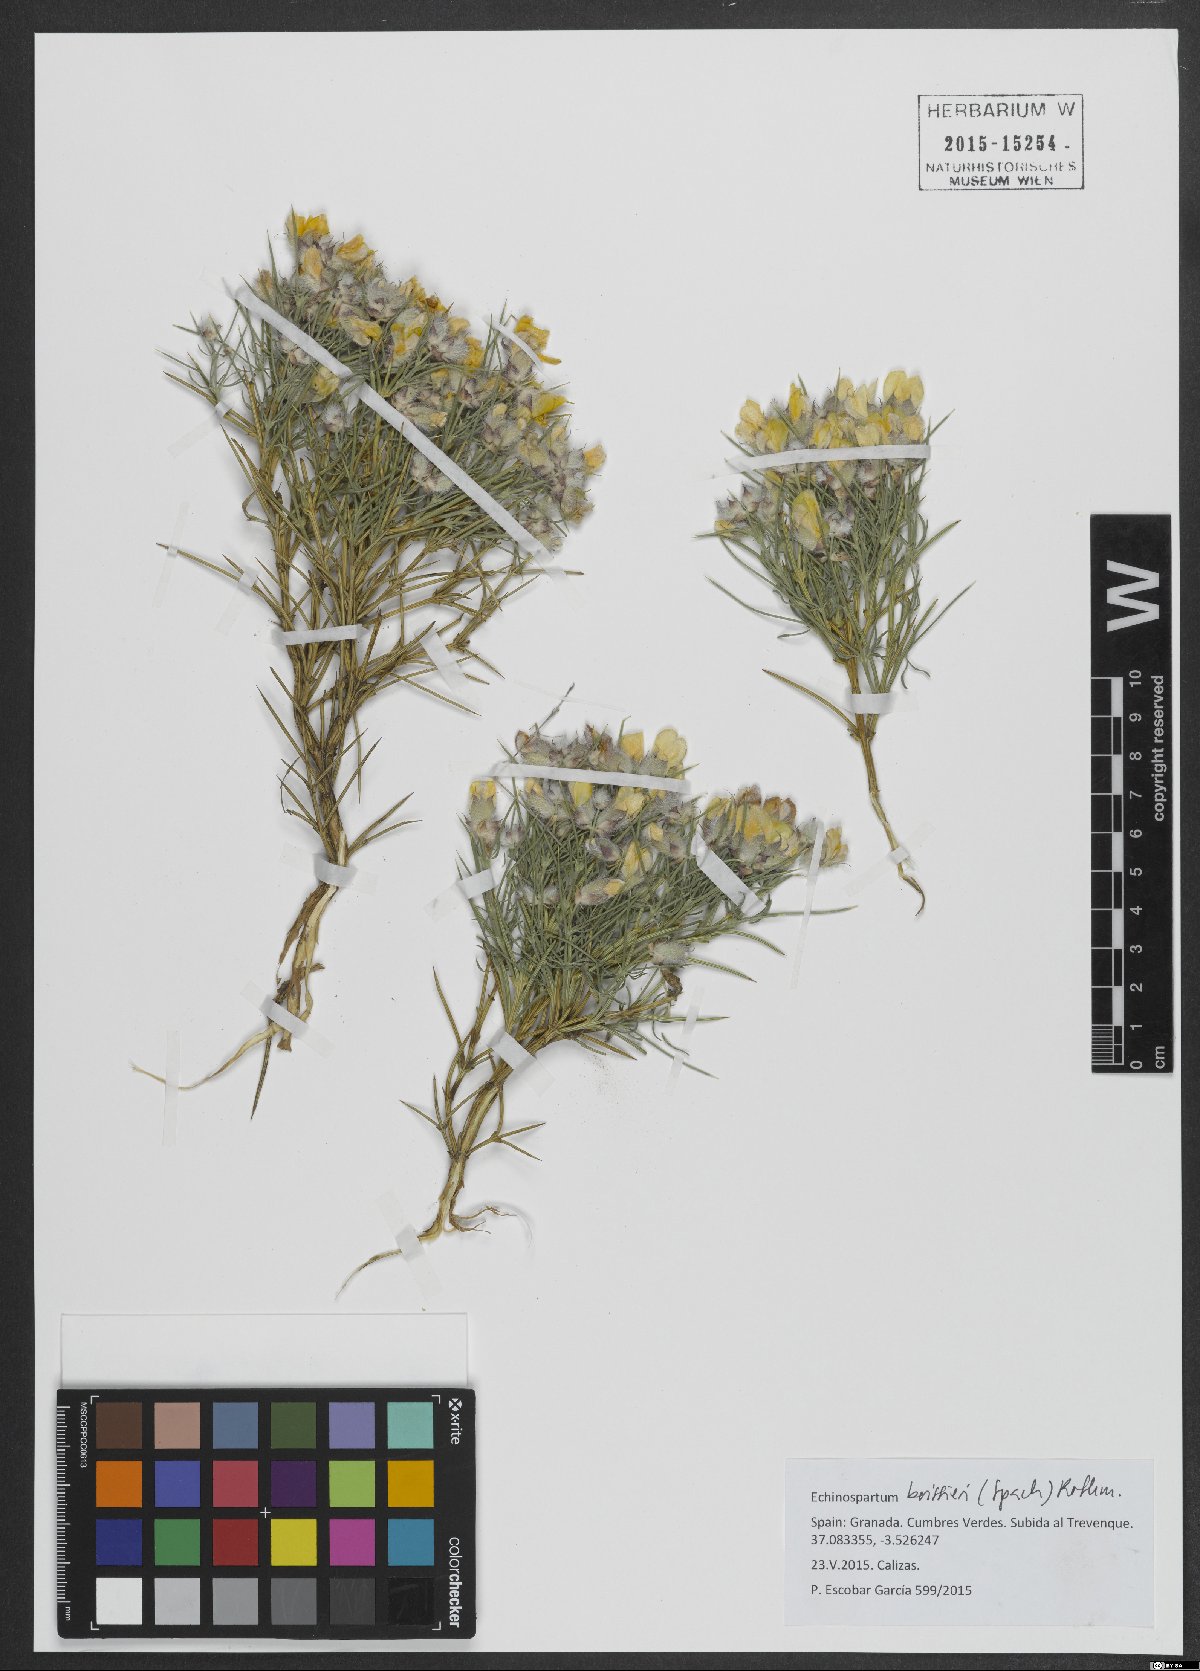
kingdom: Plantae
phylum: Tracheophyta
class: Magnoliopsida
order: Fabales
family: Fabaceae
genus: Echinospartum
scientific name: Echinospartum boissieri
